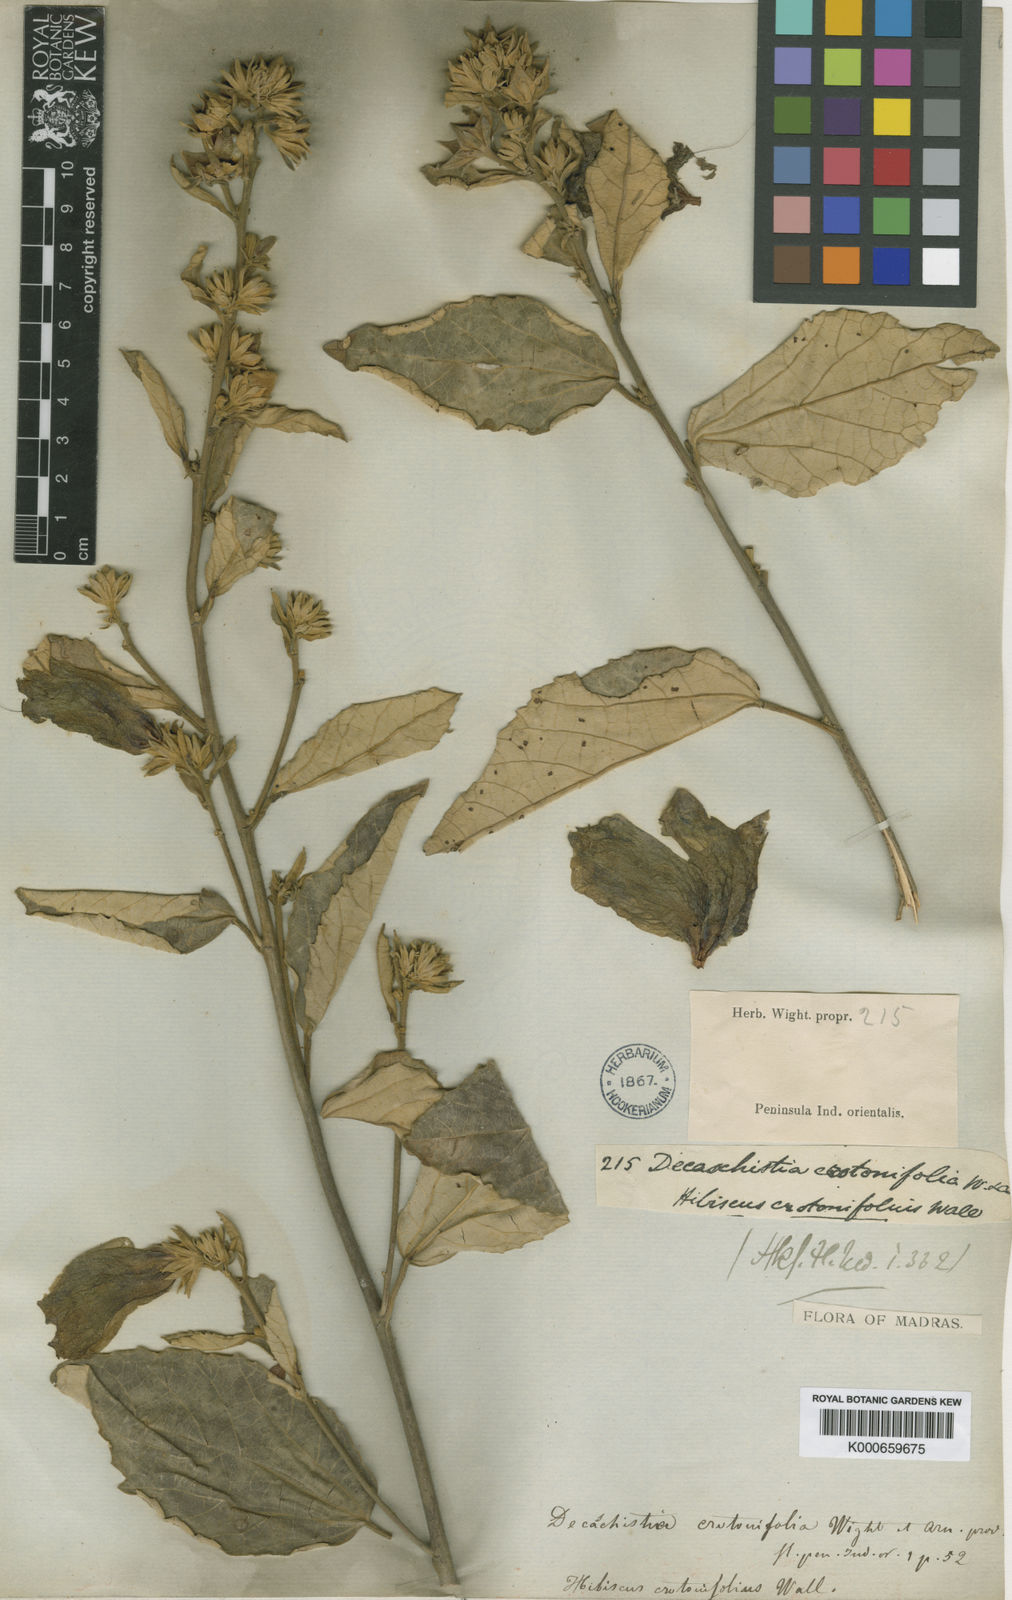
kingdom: Plantae
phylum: Tracheophyta
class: Magnoliopsida
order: Malvales
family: Malvaceae
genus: Decaschistia
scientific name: Decaschistia crotonifolia
